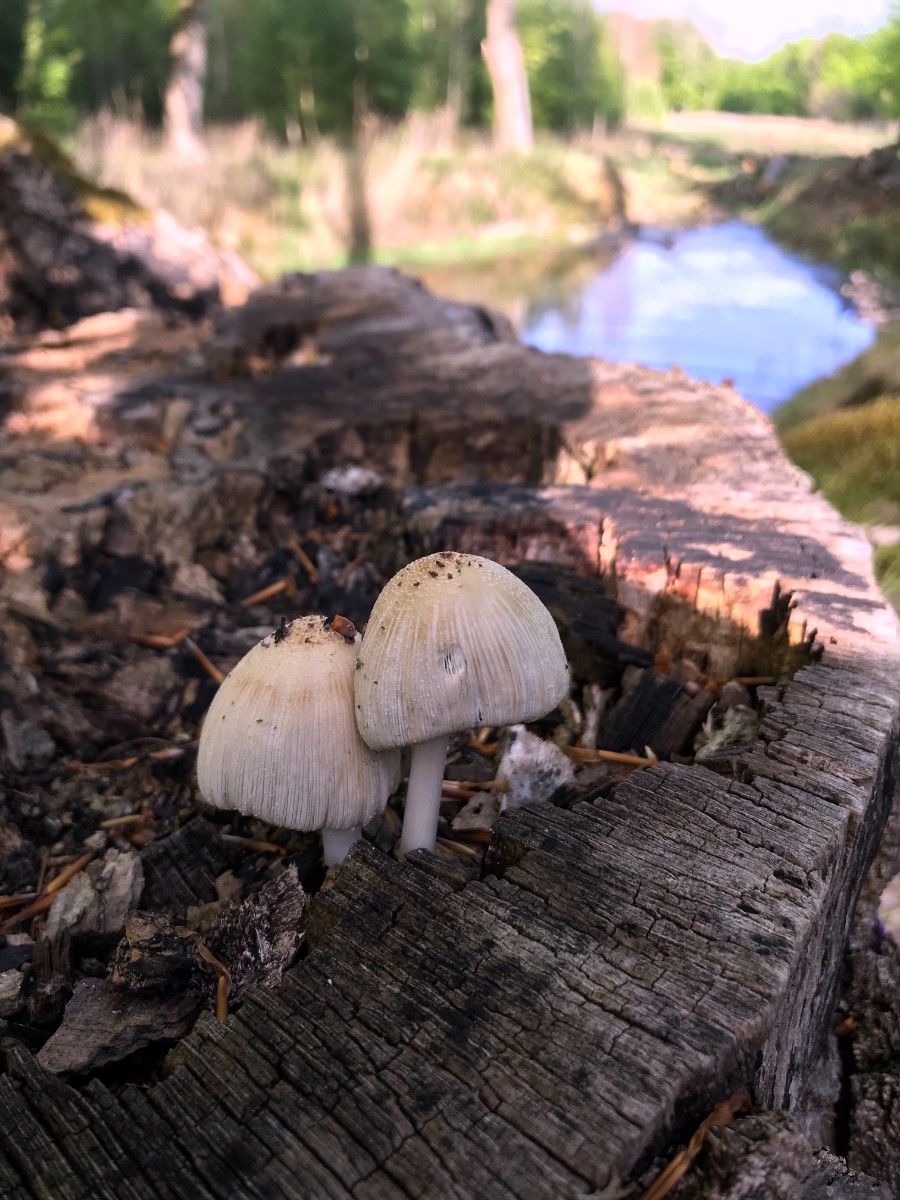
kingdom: Fungi
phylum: Basidiomycota
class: Agaricomycetes
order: Agaricales
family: Psathyrellaceae
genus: Coprinellus
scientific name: Coprinellus
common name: blækhat
